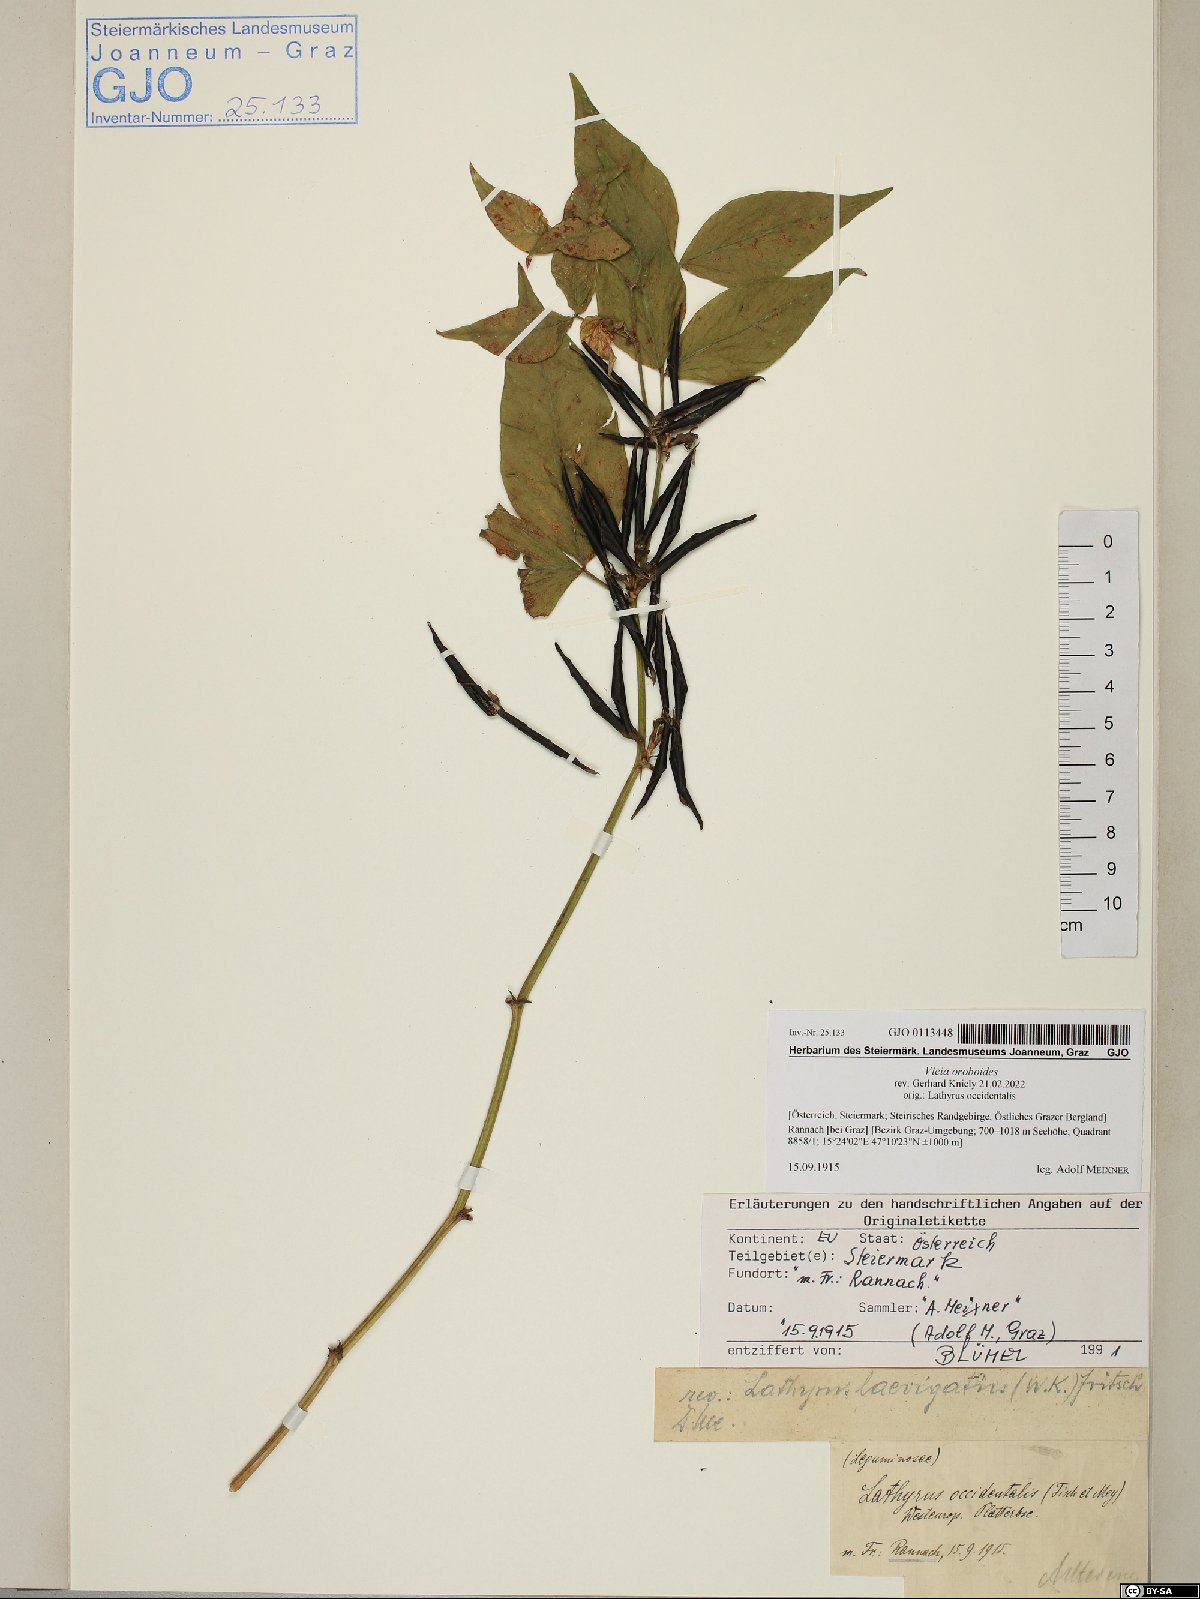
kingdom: Plantae
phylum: Tracheophyta
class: Magnoliopsida
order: Fabales
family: Fabaceae
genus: Vicia
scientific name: Vicia oroboides
